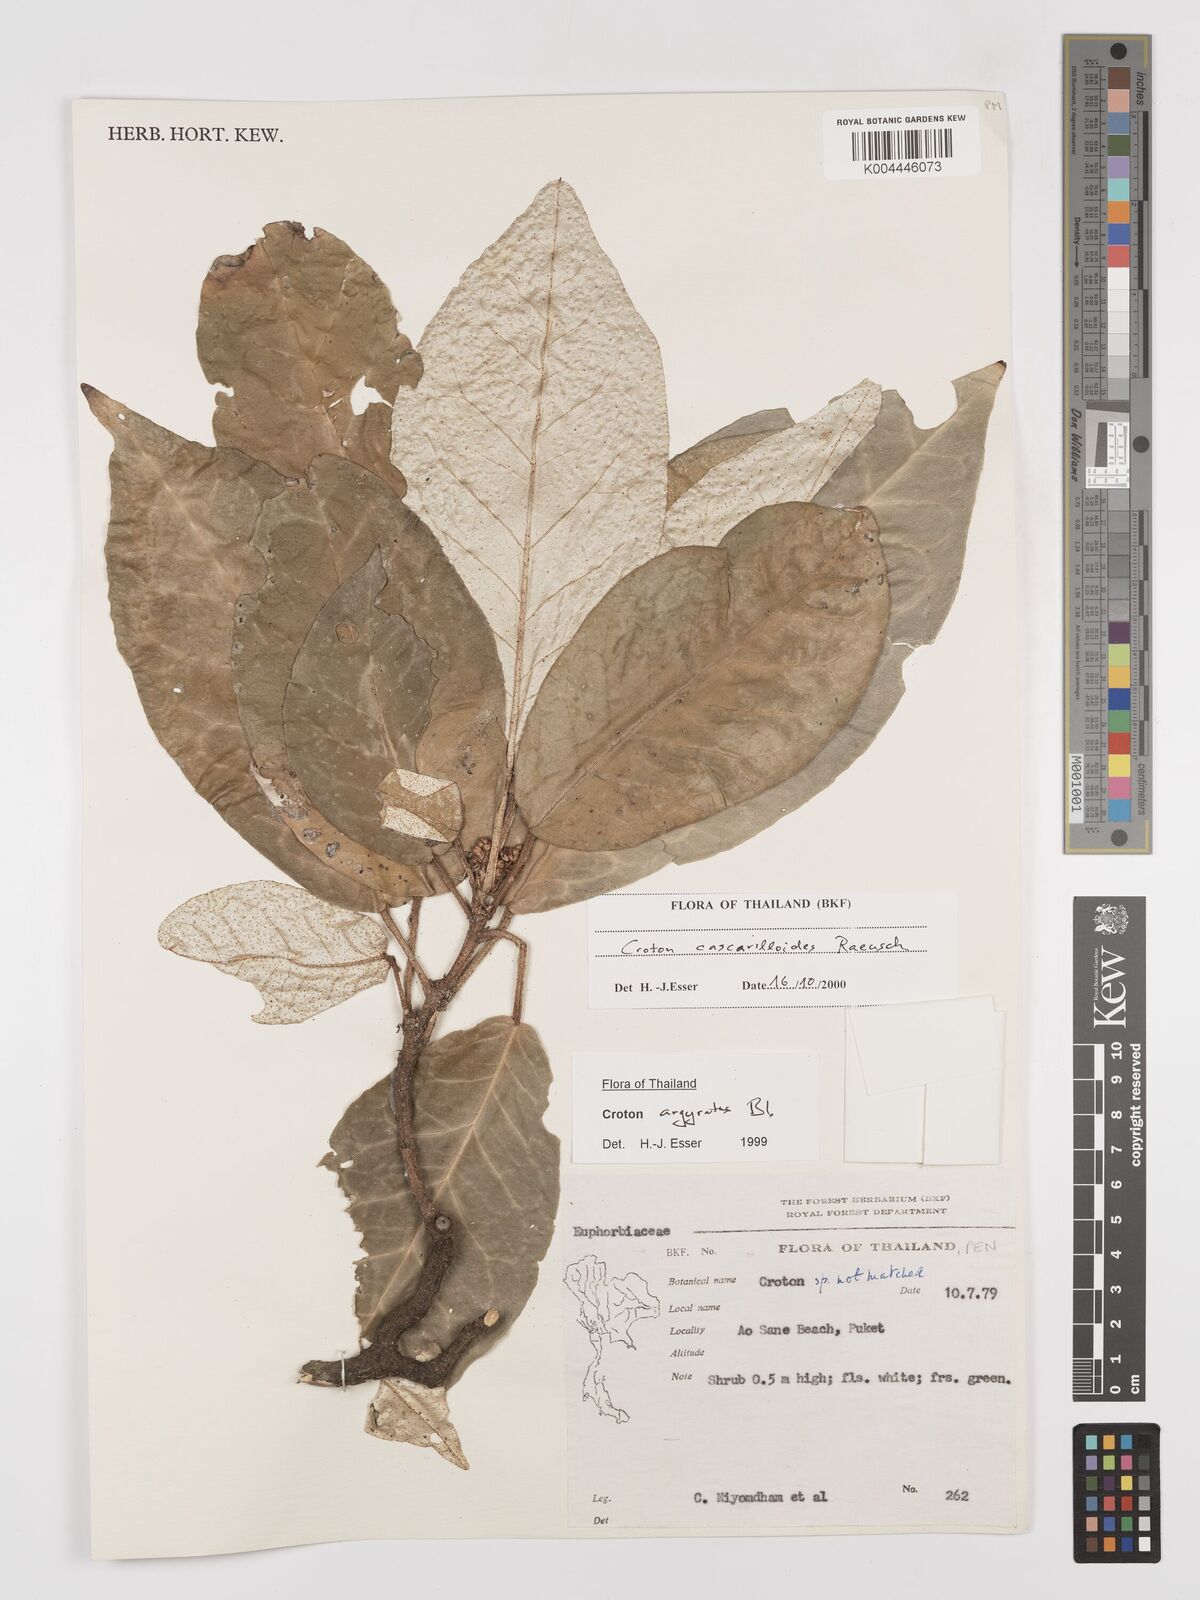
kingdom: Plantae
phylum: Tracheophyta
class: Magnoliopsida
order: Malpighiales
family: Euphorbiaceae
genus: Croton
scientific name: Croton cascarilloides
